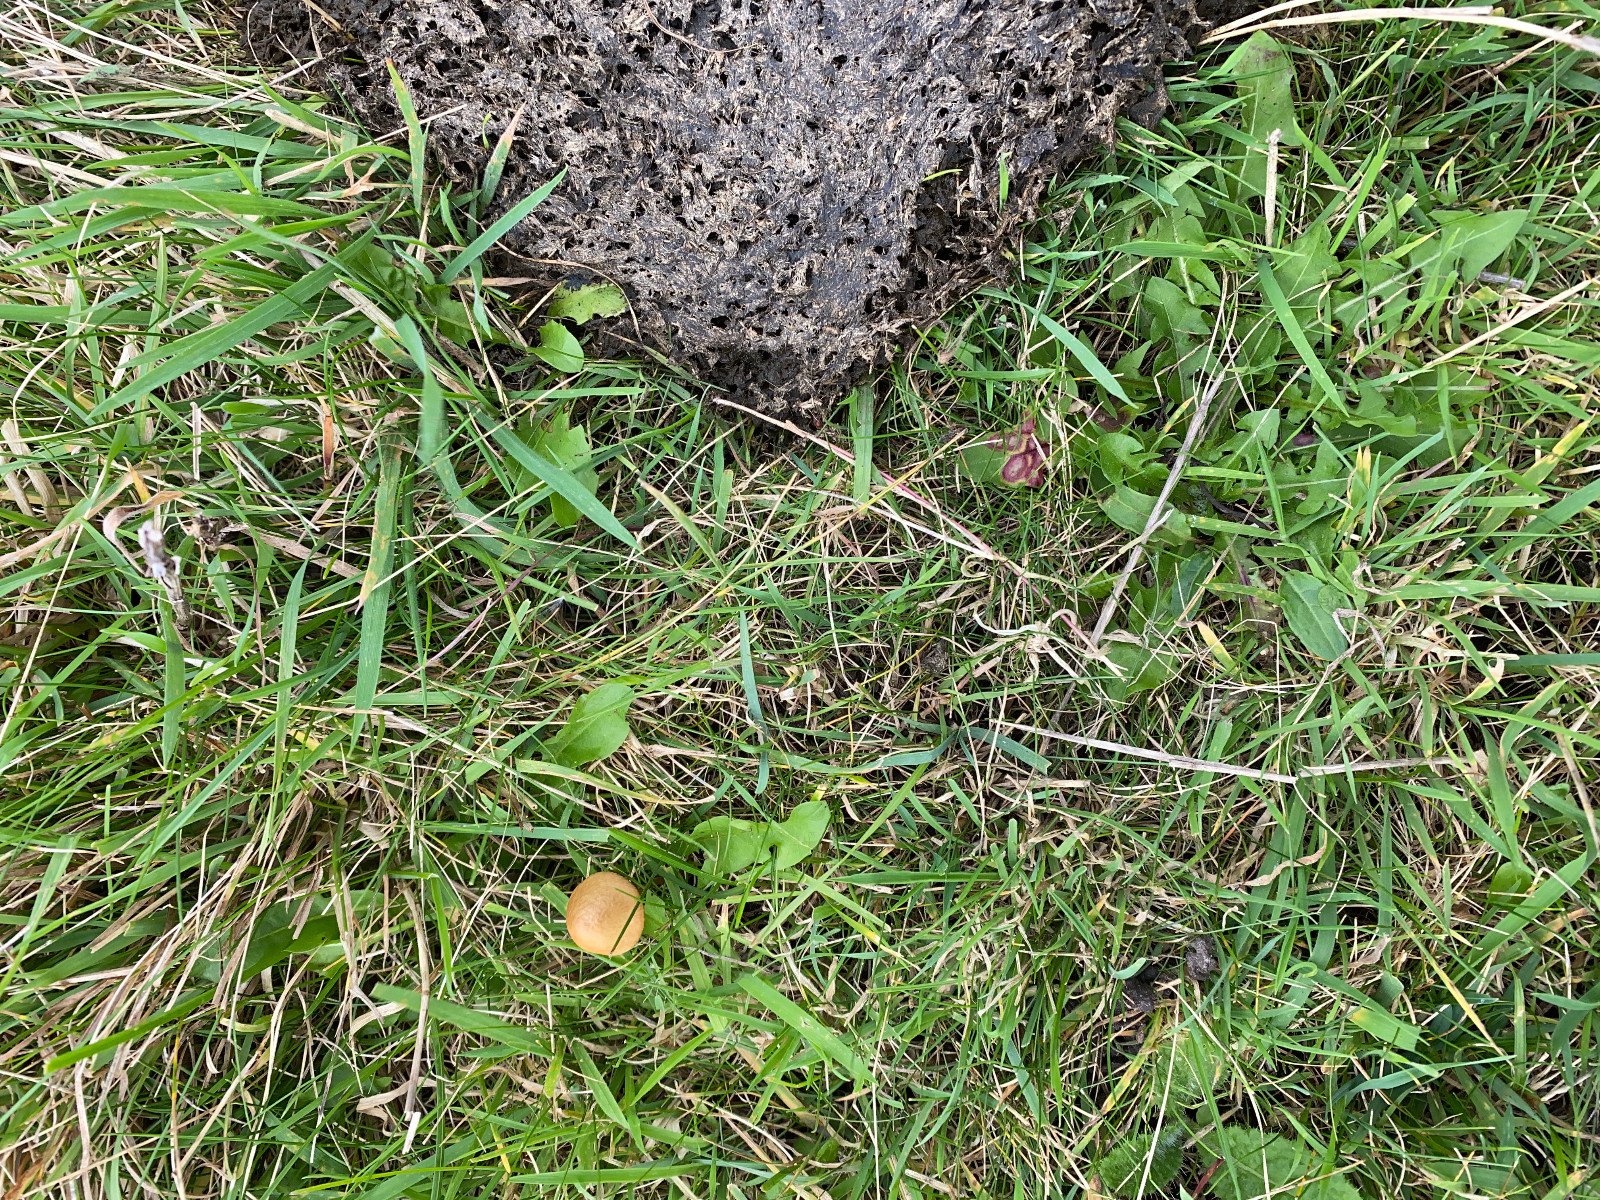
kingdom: Fungi
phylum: Basidiomycota
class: Agaricomycetes
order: Agaricales
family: Bolbitiaceae
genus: Conocybe
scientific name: Conocybe
